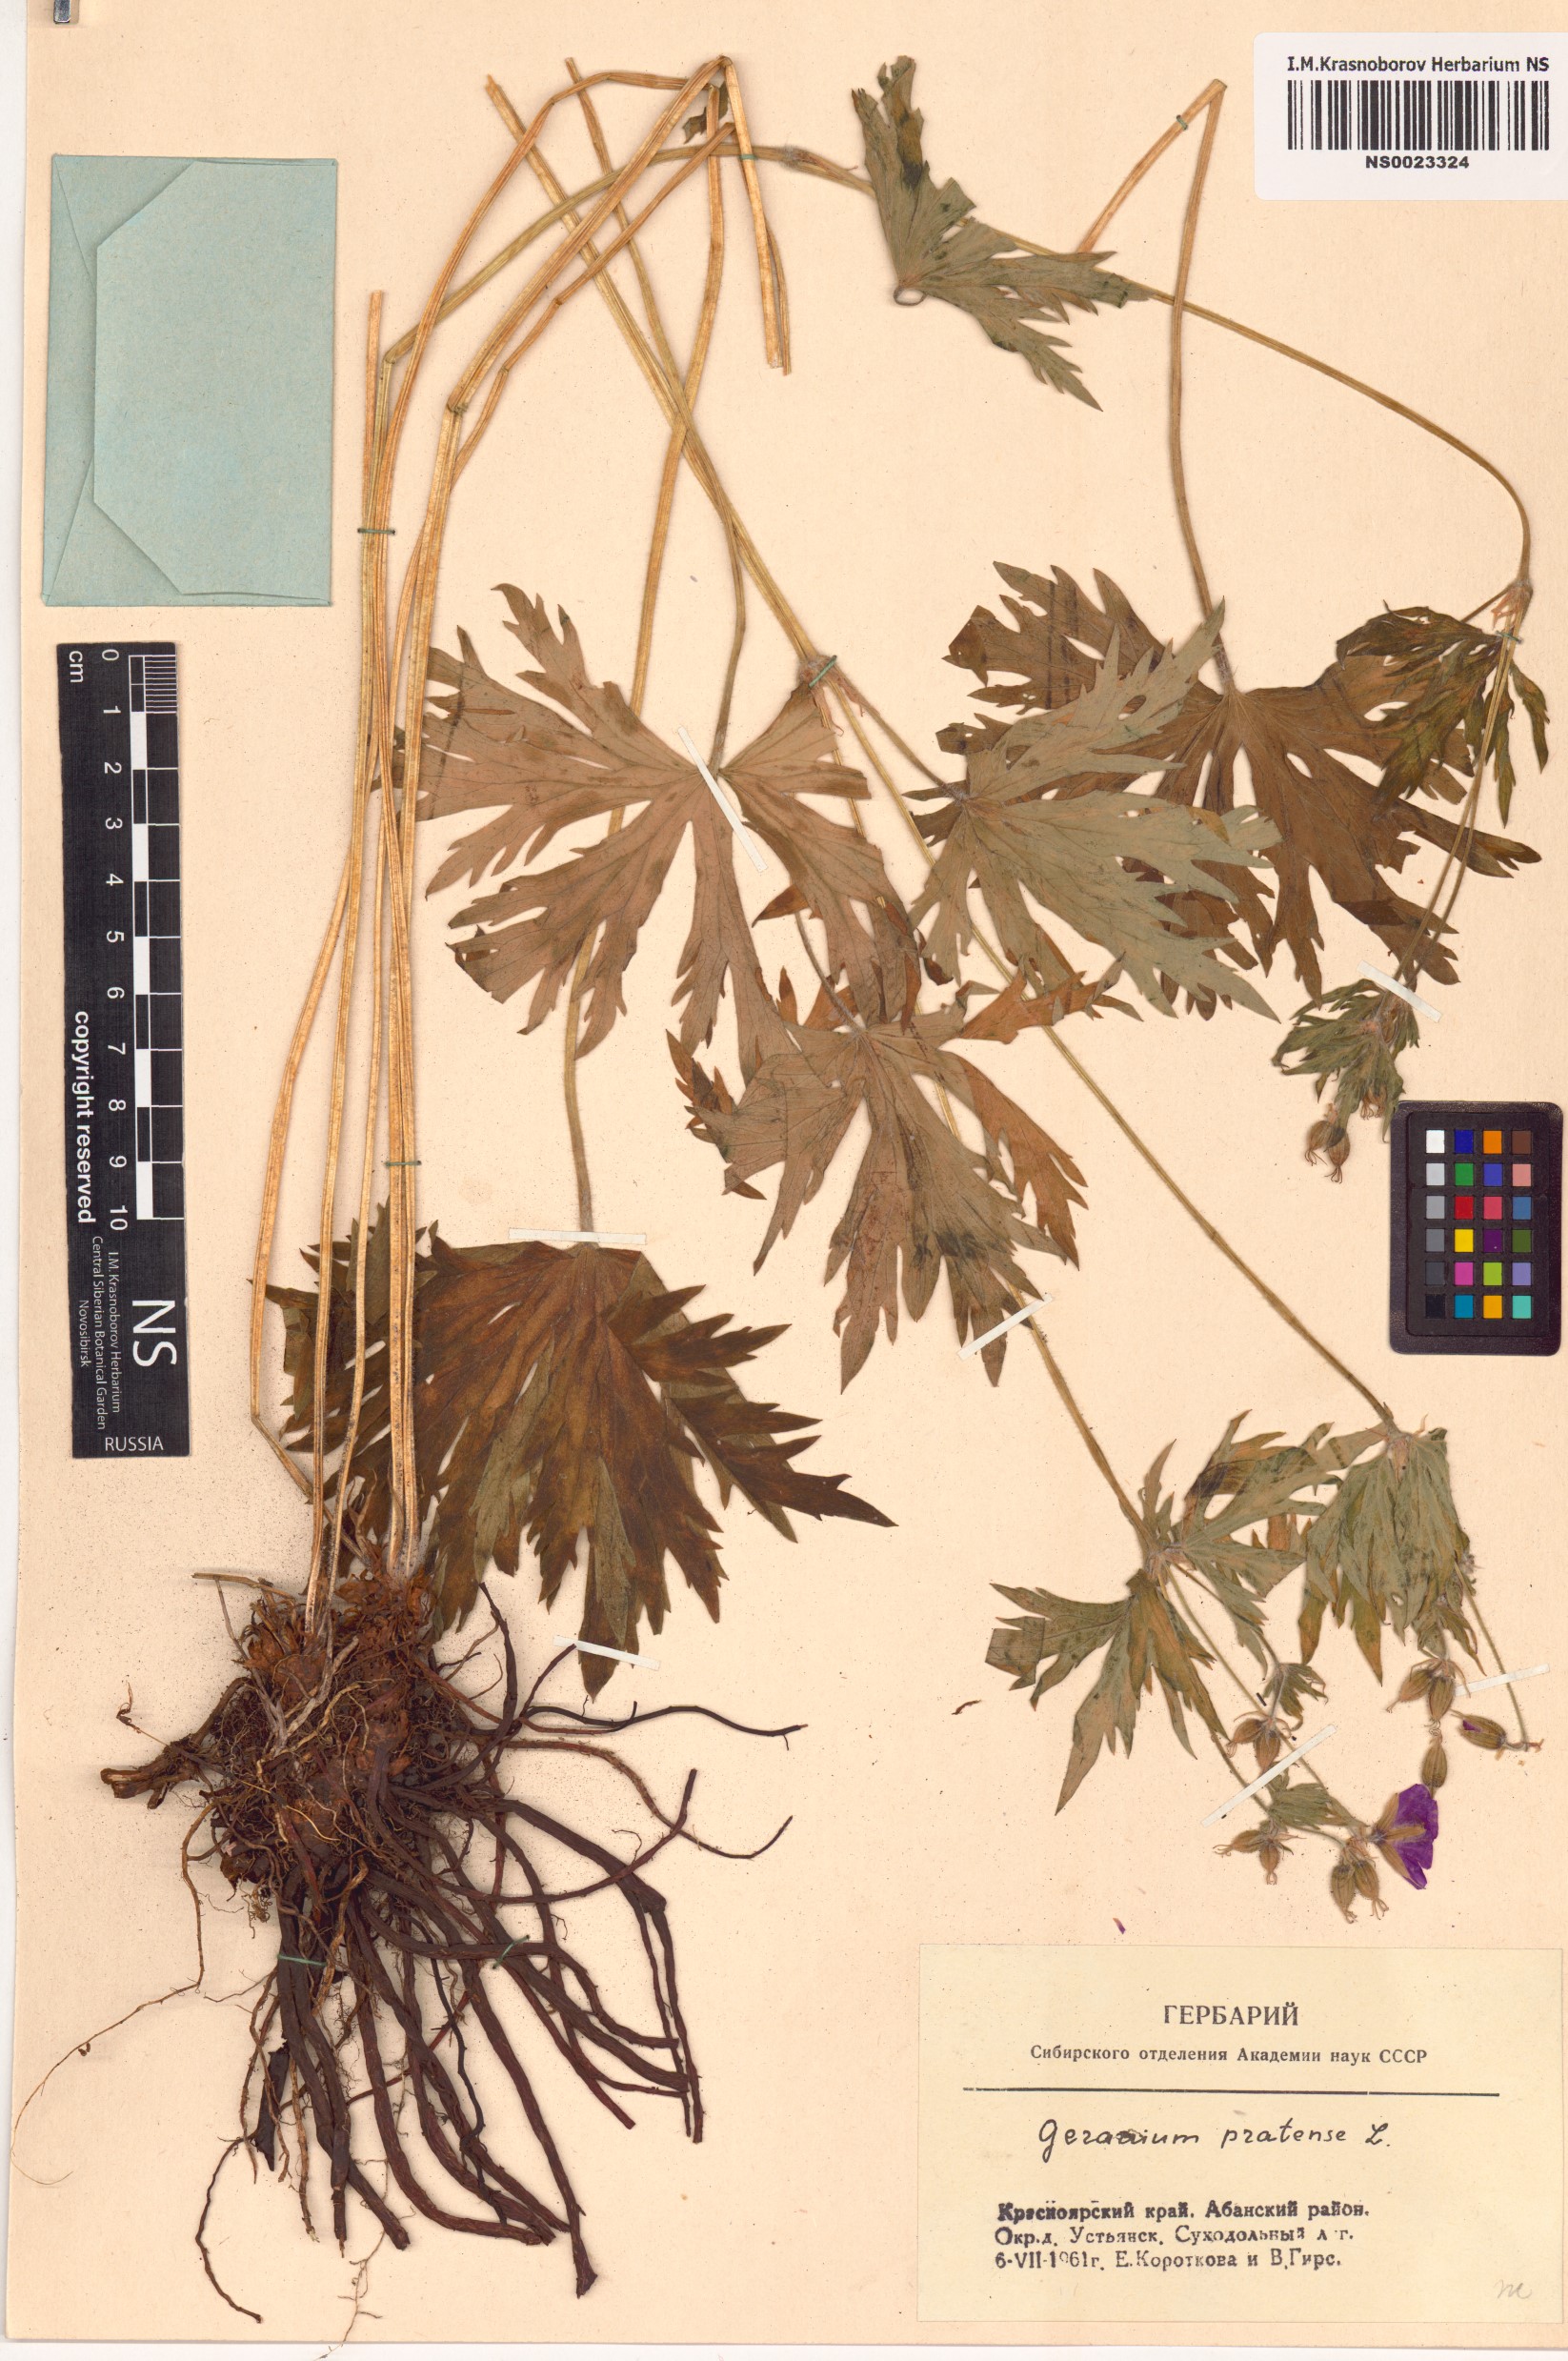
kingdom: Plantae
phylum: Tracheophyta
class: Magnoliopsida
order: Geraniales
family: Geraniaceae
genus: Geranium
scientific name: Geranium pratense
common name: Meadow crane's-bill
